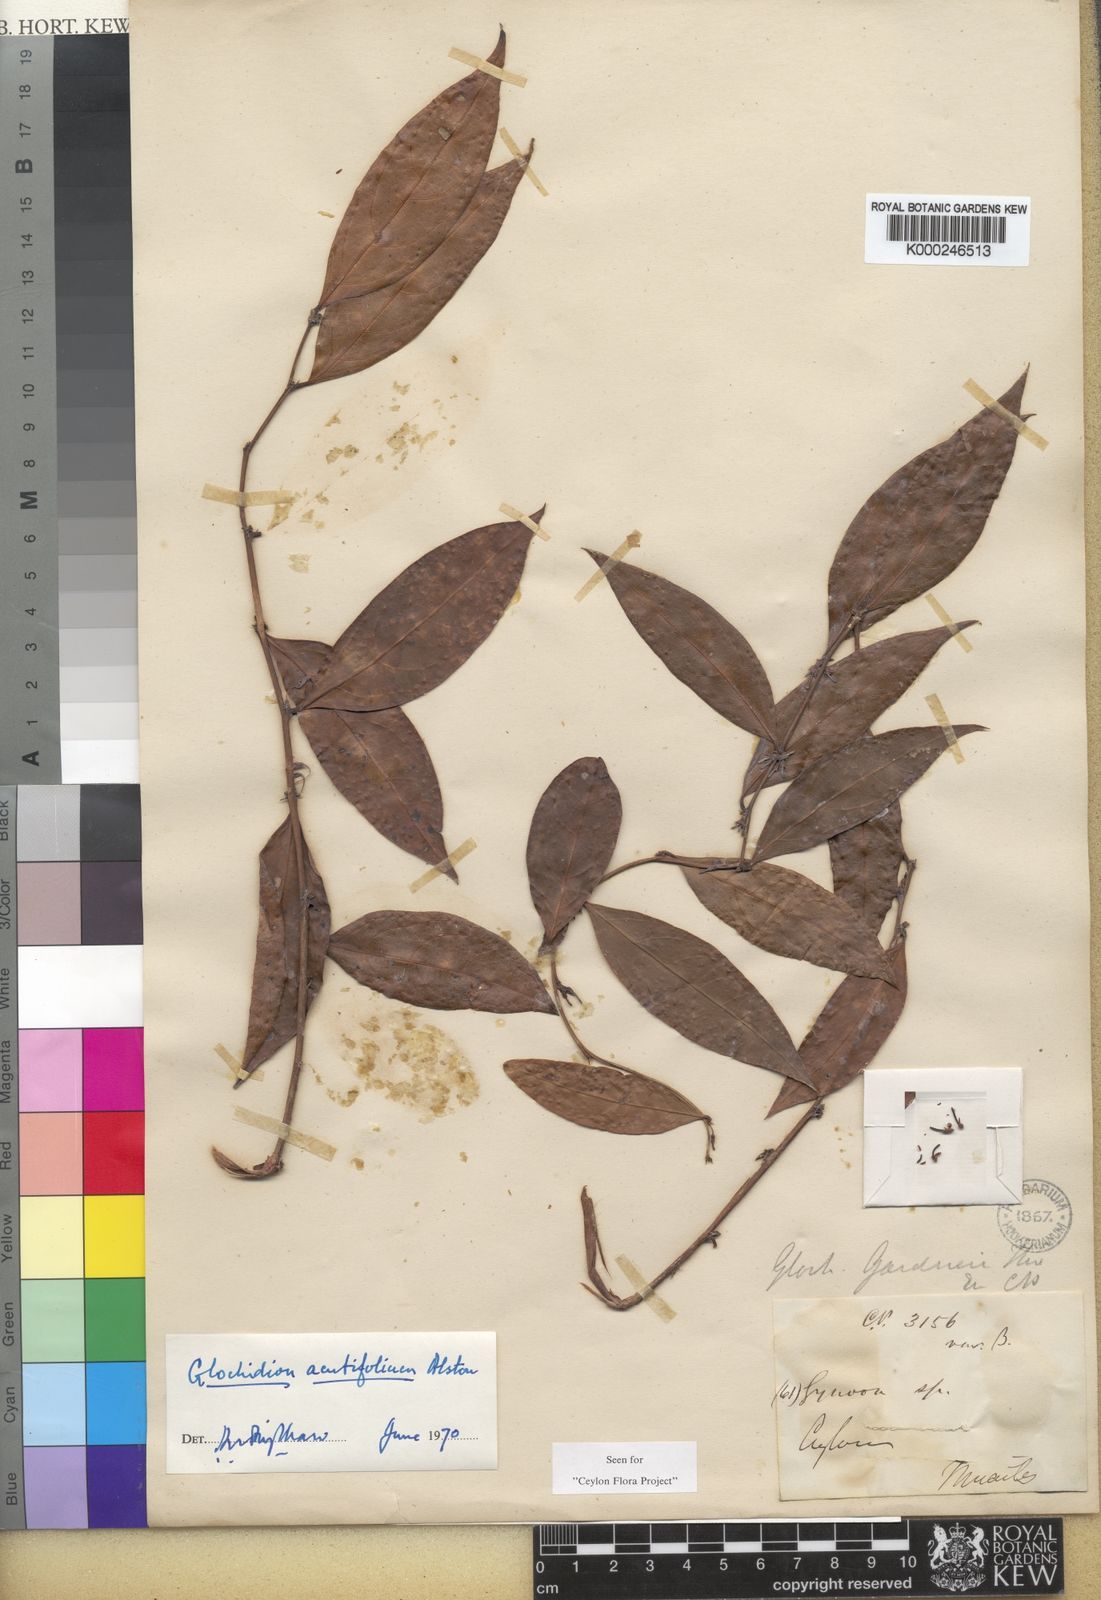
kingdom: Plantae
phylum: Tracheophyta
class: Magnoliopsida
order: Malpighiales
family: Phyllanthaceae
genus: Glochidion
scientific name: Glochidion nemorale
